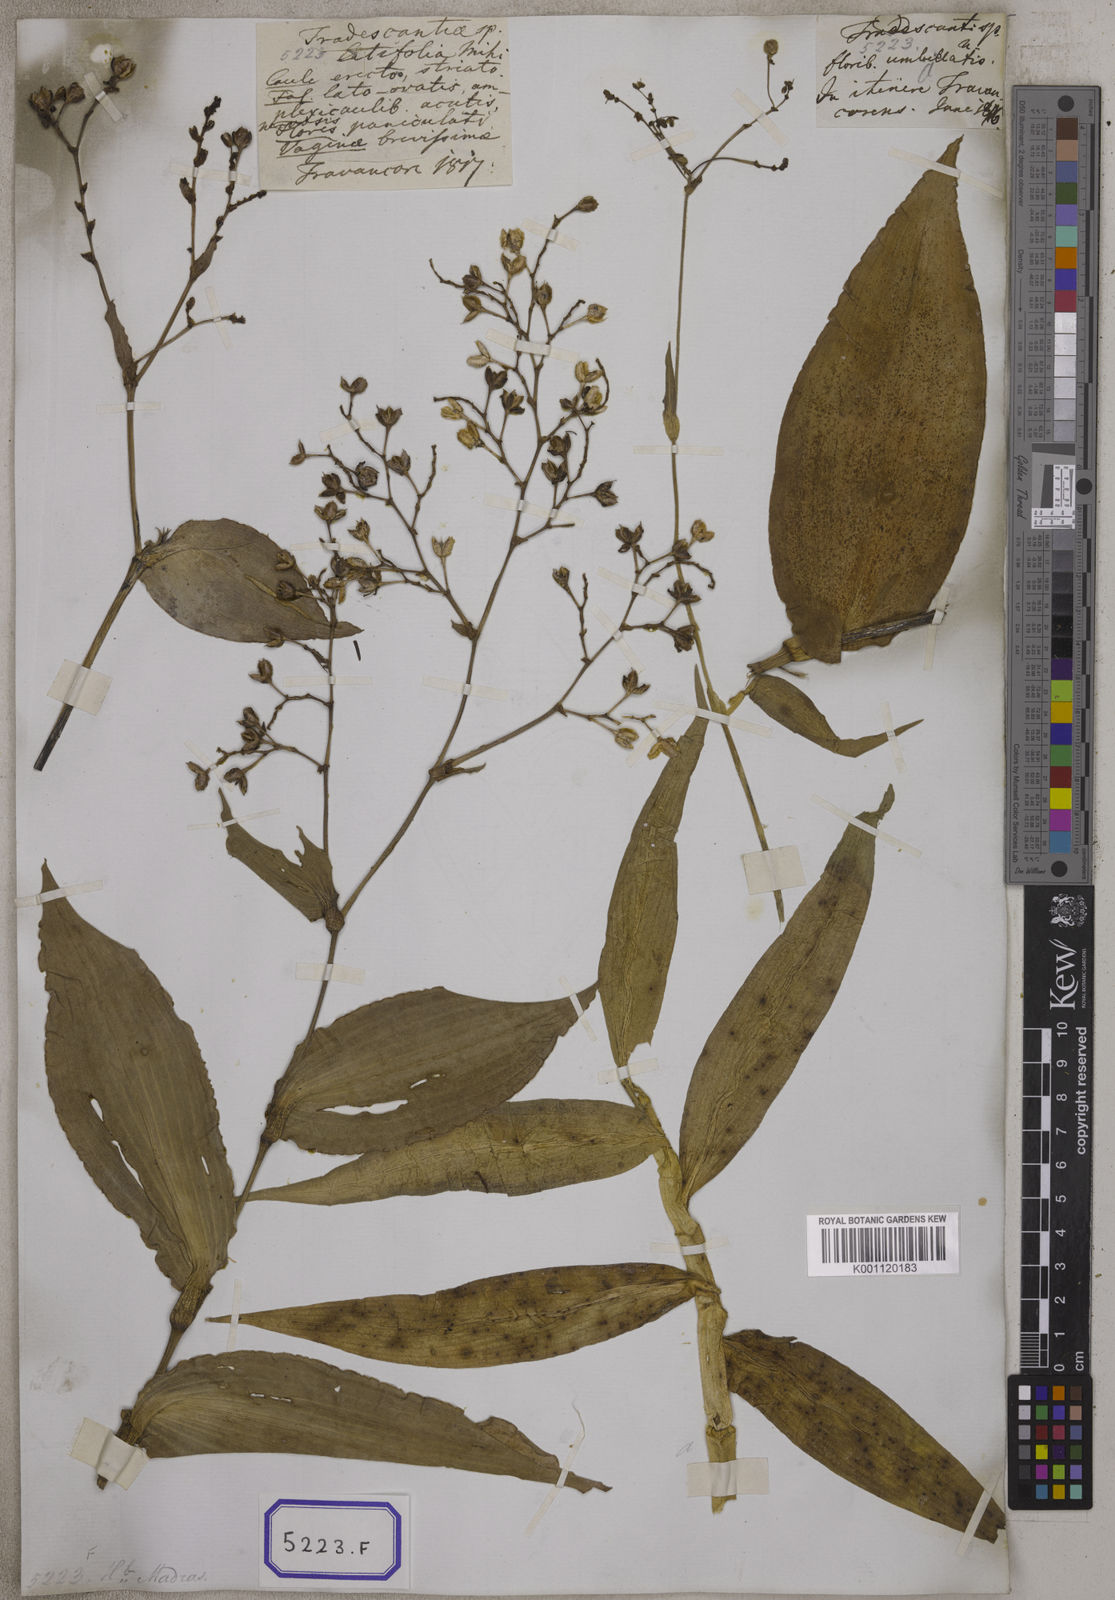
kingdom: Plantae
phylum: Tracheophyta
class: Liliopsida
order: Commelinales
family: Commelinaceae
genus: Murdannia
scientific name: Murdannia japonica
